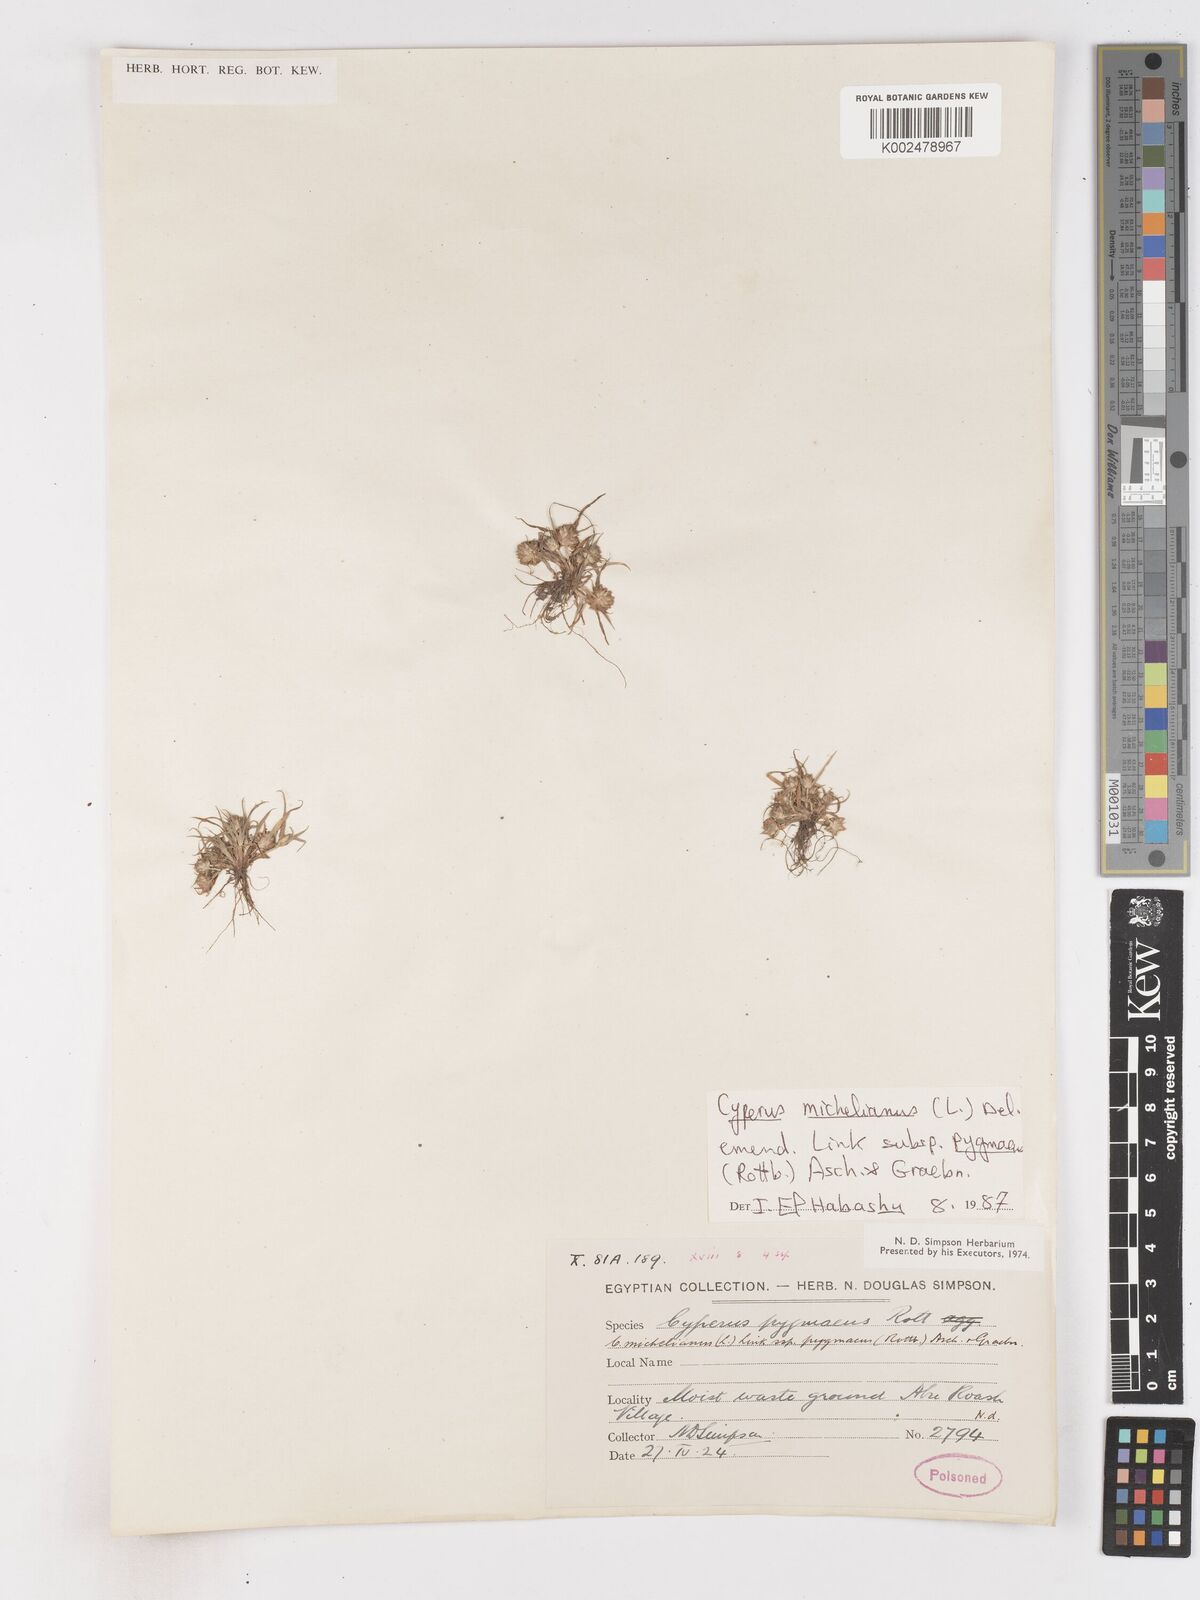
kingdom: Plantae
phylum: Tracheophyta
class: Liliopsida
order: Poales
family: Cyperaceae
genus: Cyperus
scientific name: Cyperus michelianus
